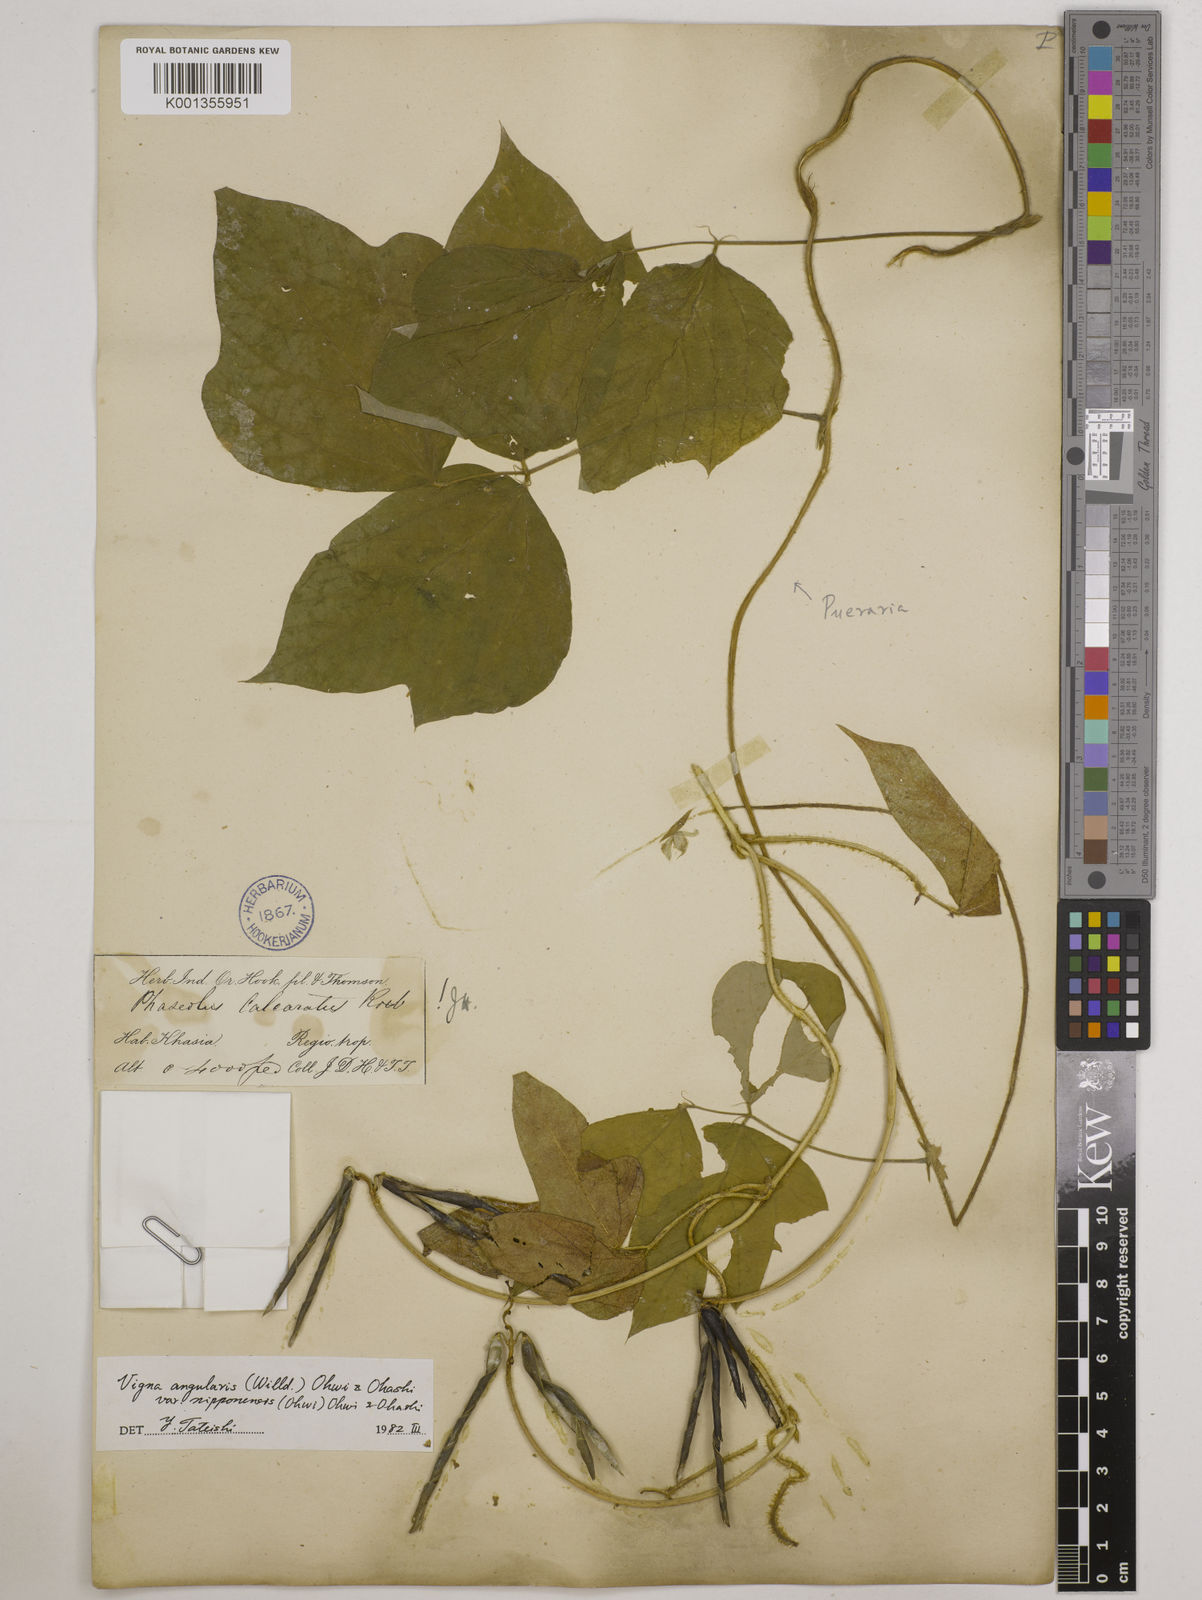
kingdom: Plantae
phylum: Tracheophyta
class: Magnoliopsida
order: Fabales
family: Fabaceae
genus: Vigna
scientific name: Vigna
